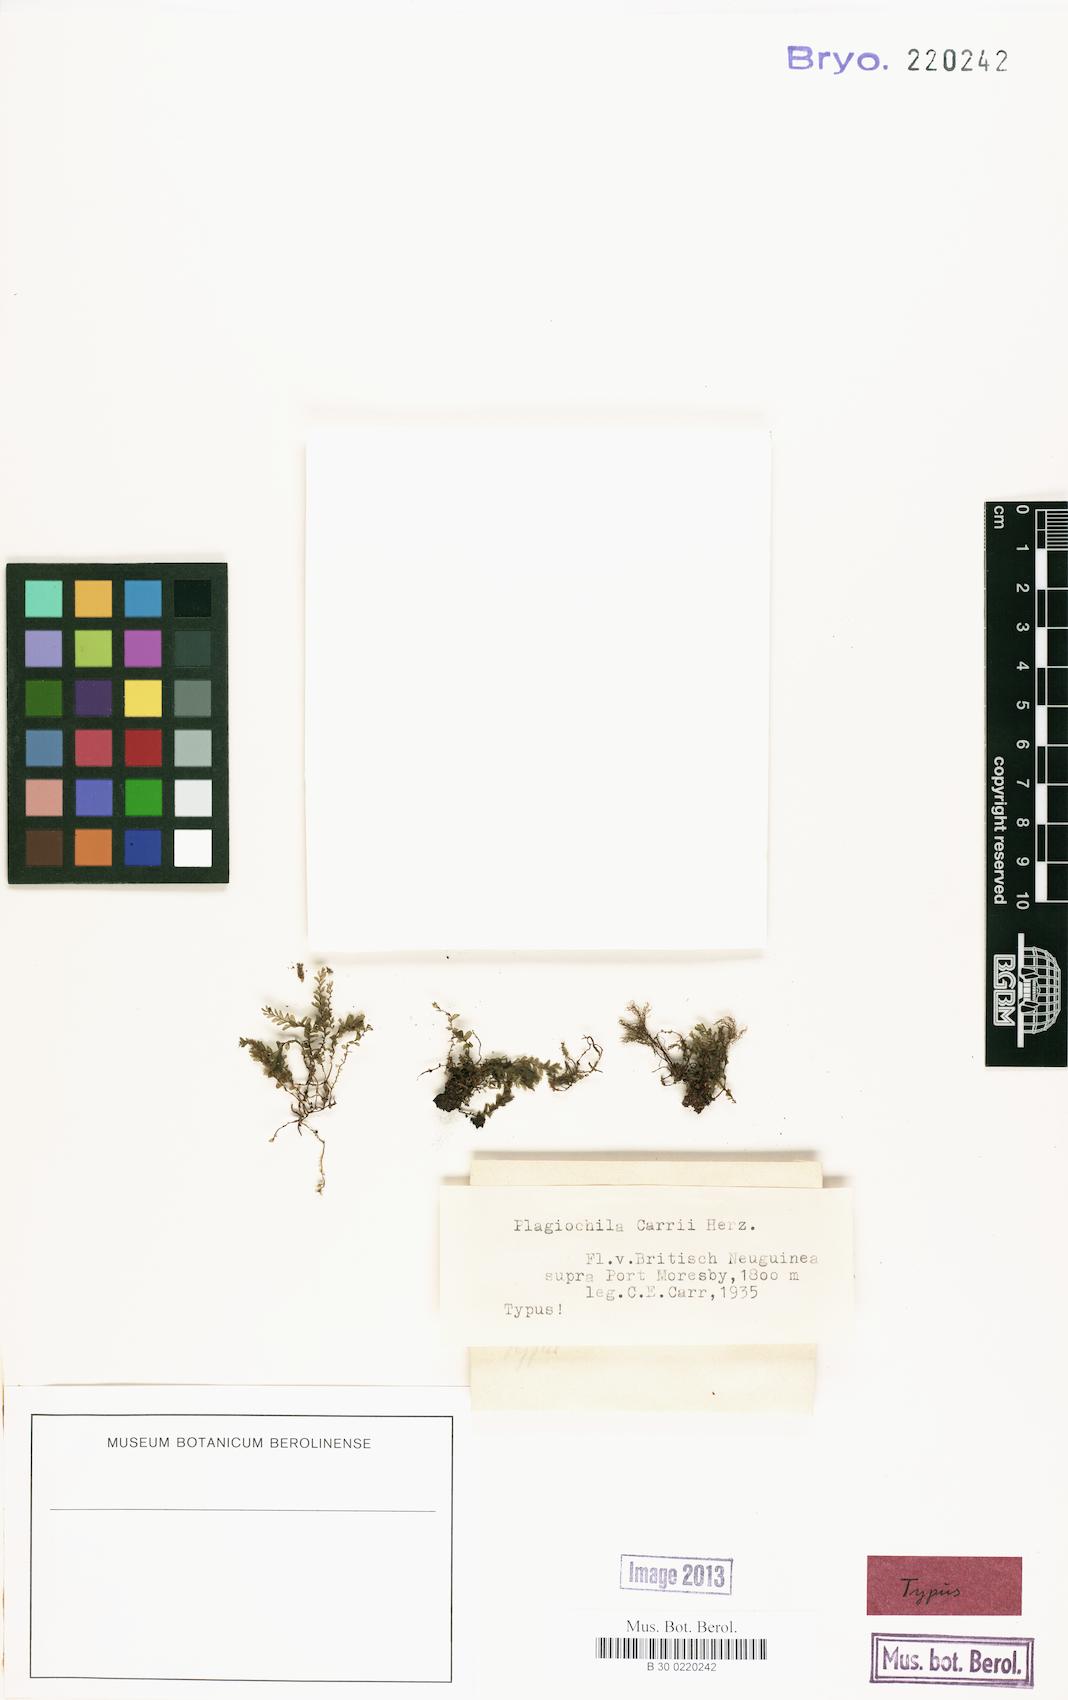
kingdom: Plantae
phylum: Marchantiophyta
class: Jungermanniopsida
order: Jungermanniales
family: Acrobolbaceae
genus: Acrobolbus
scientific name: Acrobolbus saccatus
